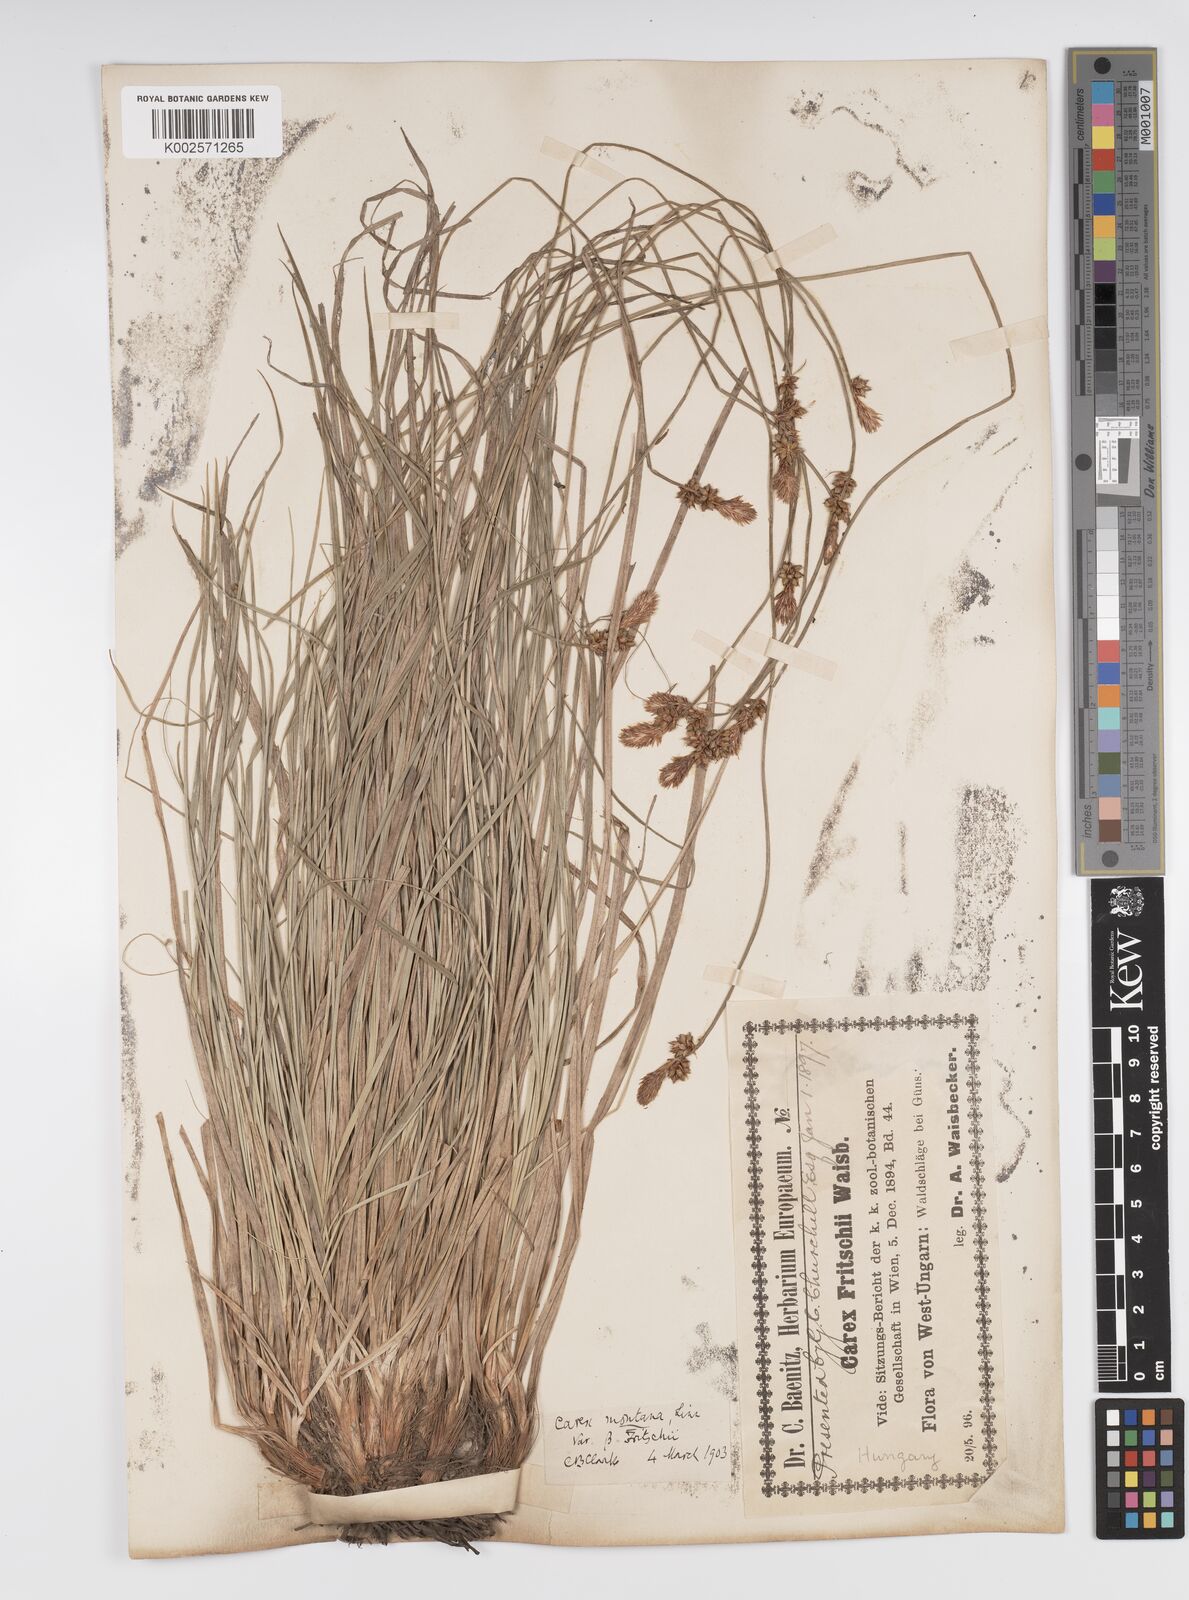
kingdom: Plantae
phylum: Tracheophyta
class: Liliopsida
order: Poales
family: Cyperaceae
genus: Carex
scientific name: Carex fritschii
